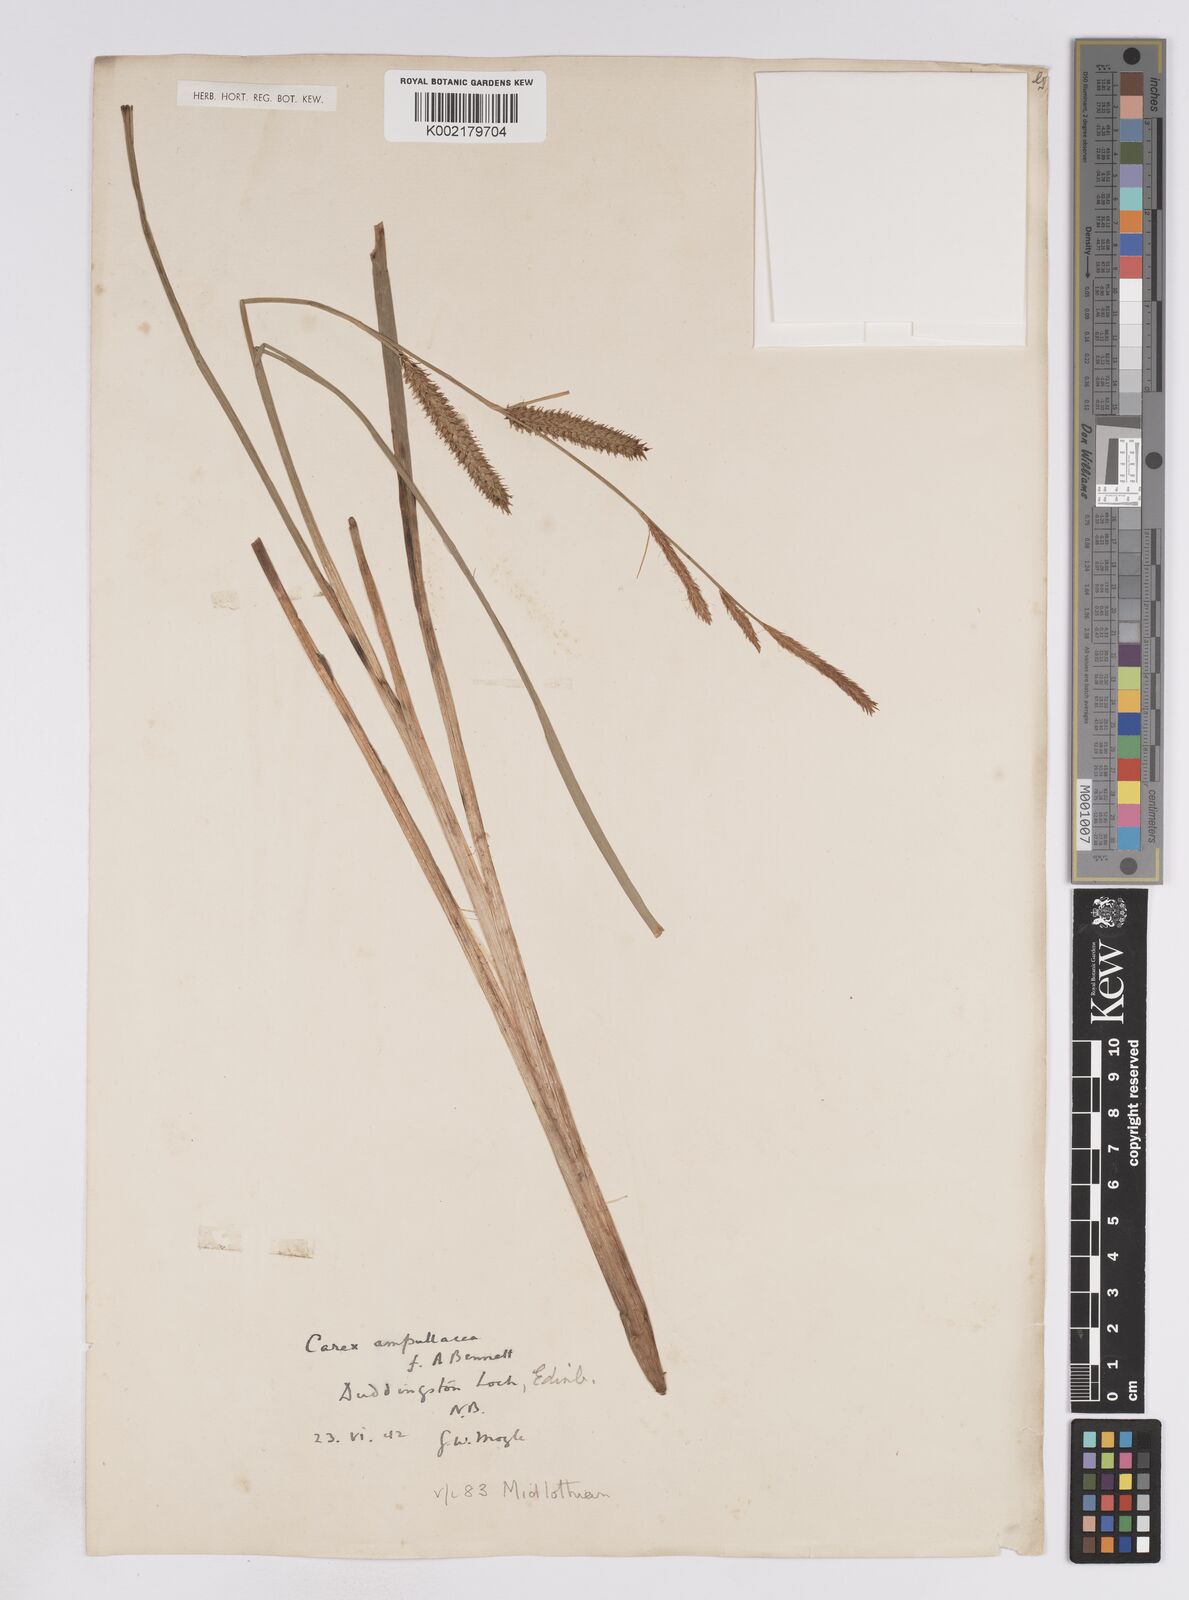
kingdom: Plantae
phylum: Tracheophyta
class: Liliopsida
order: Poales
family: Cyperaceae
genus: Carex
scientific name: Carex rostrata
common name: Bottle sedge
